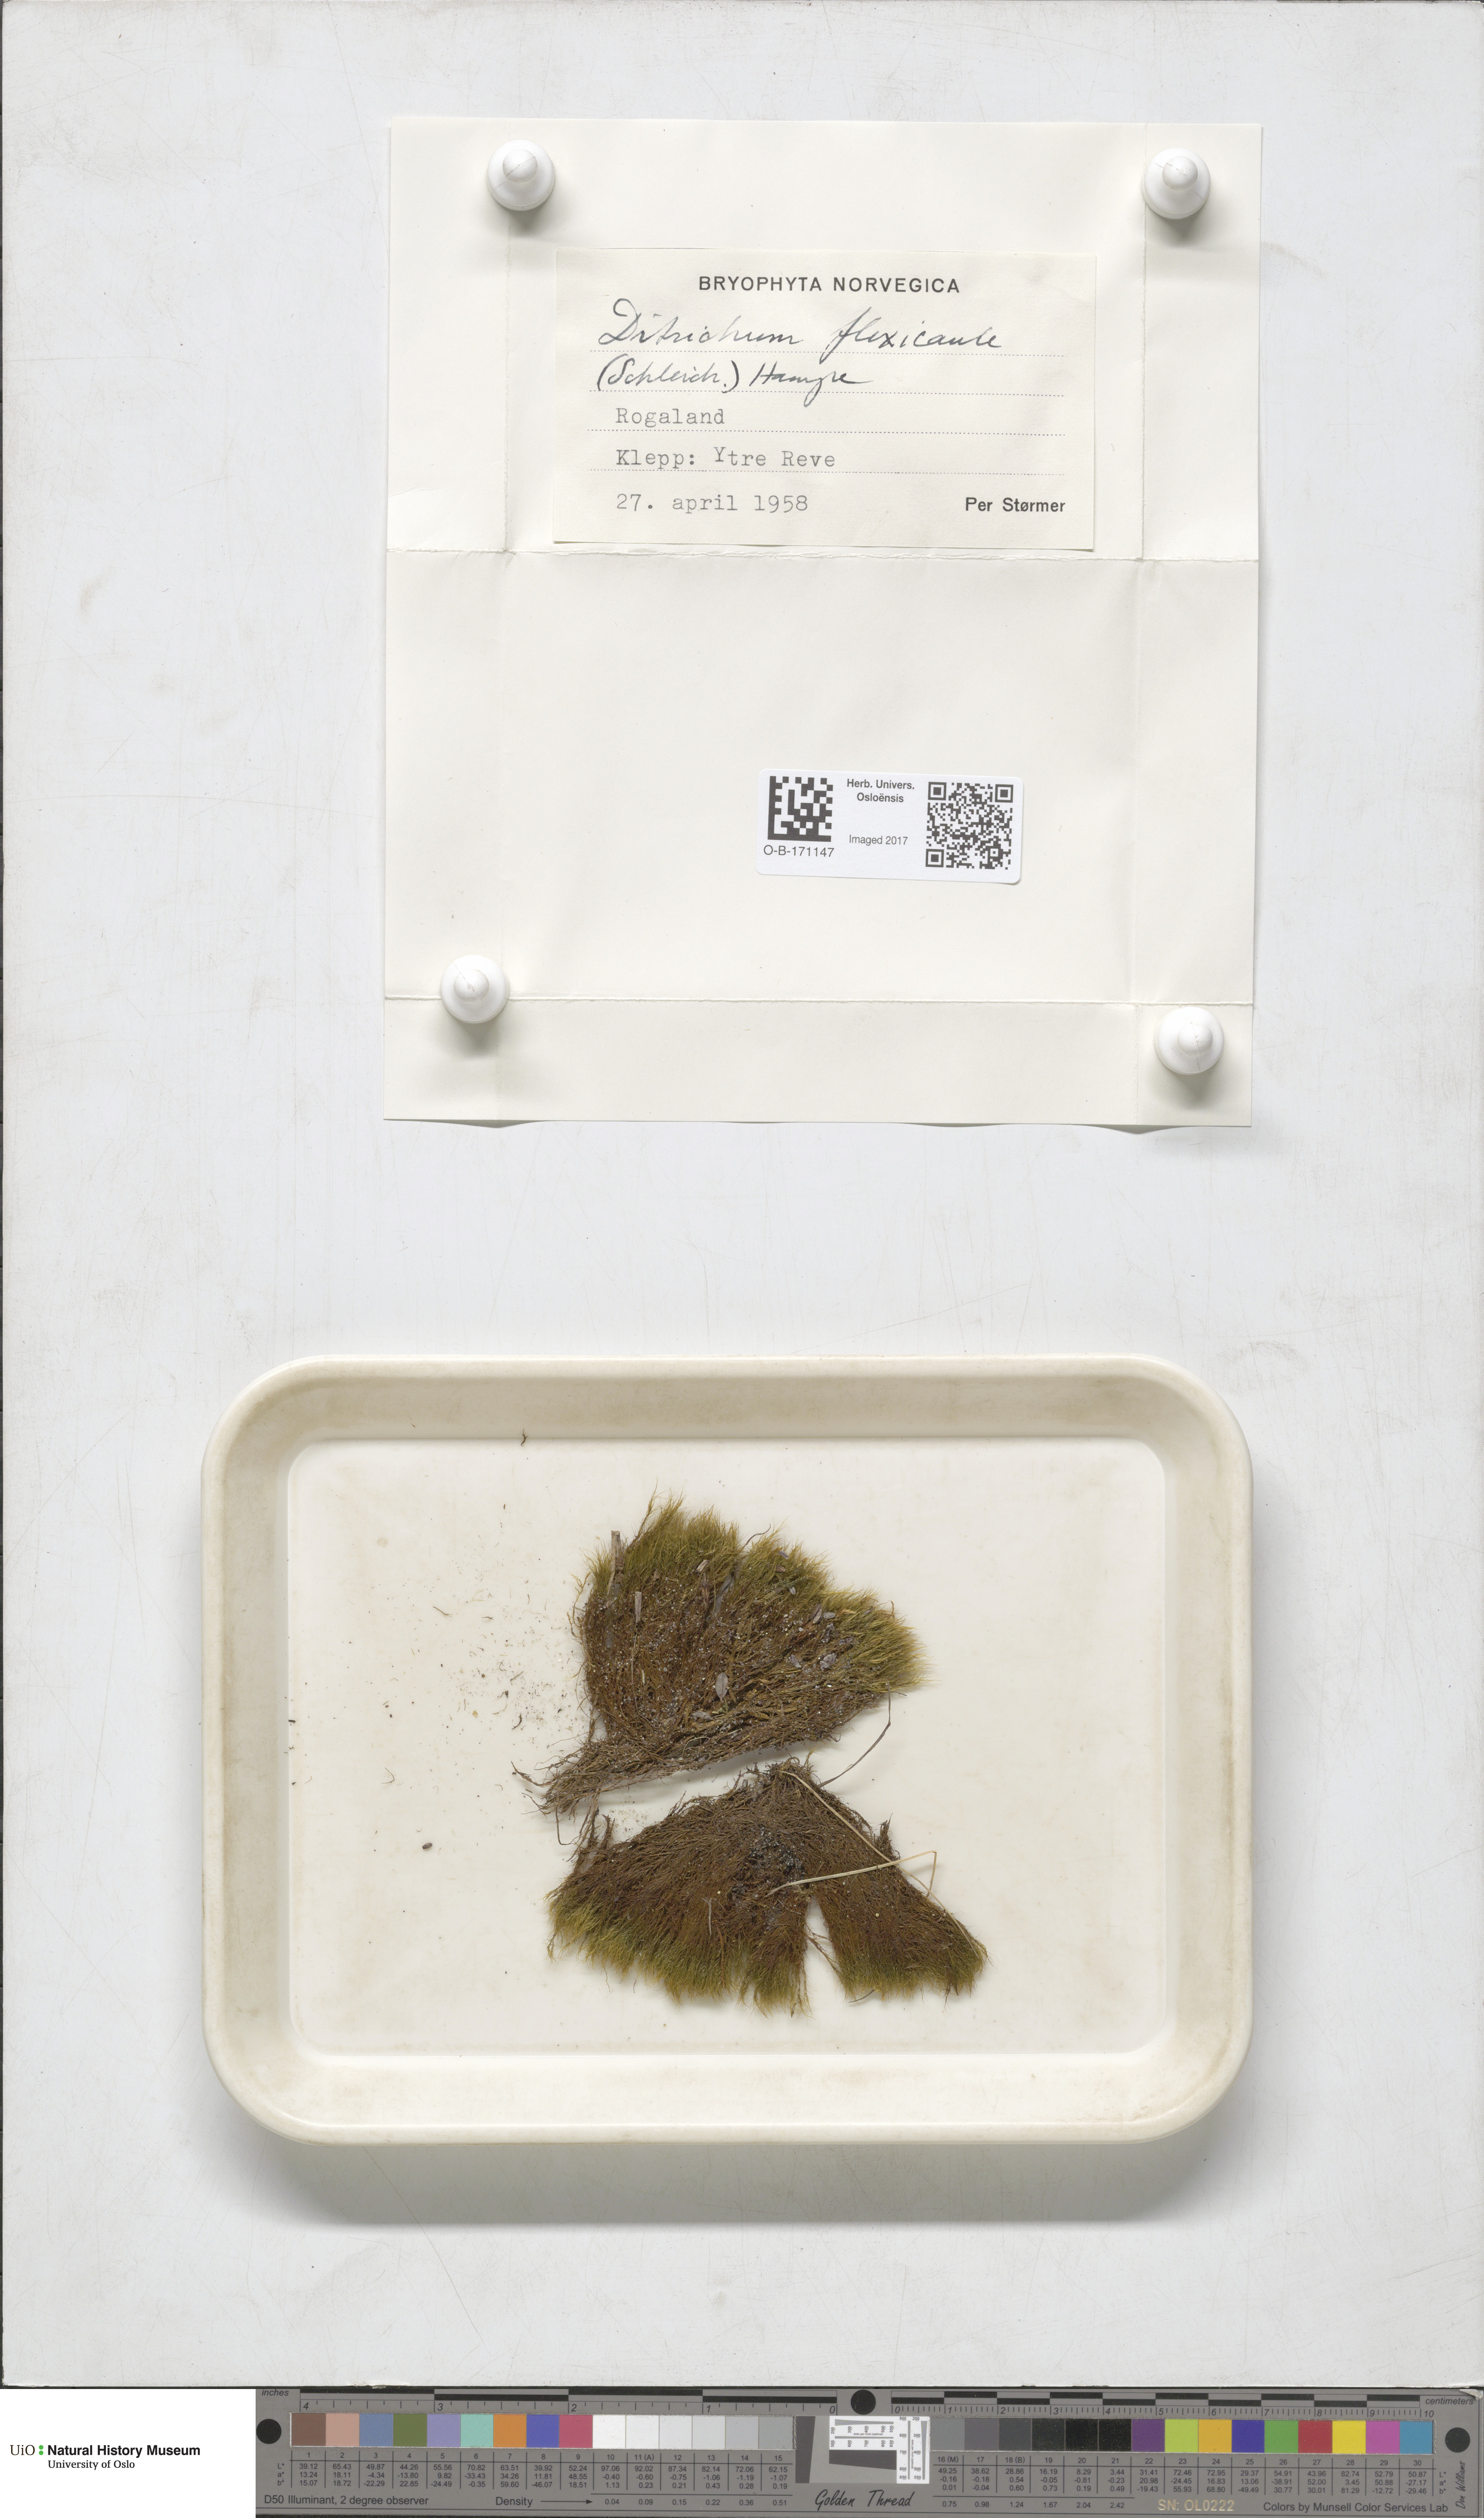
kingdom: Plantae
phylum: Bryophyta
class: Bryopsida
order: Scouleriales
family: Flexitrichaceae
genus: Flexitrichum
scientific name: Flexitrichum flexicaule
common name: Bendy ditrichum
